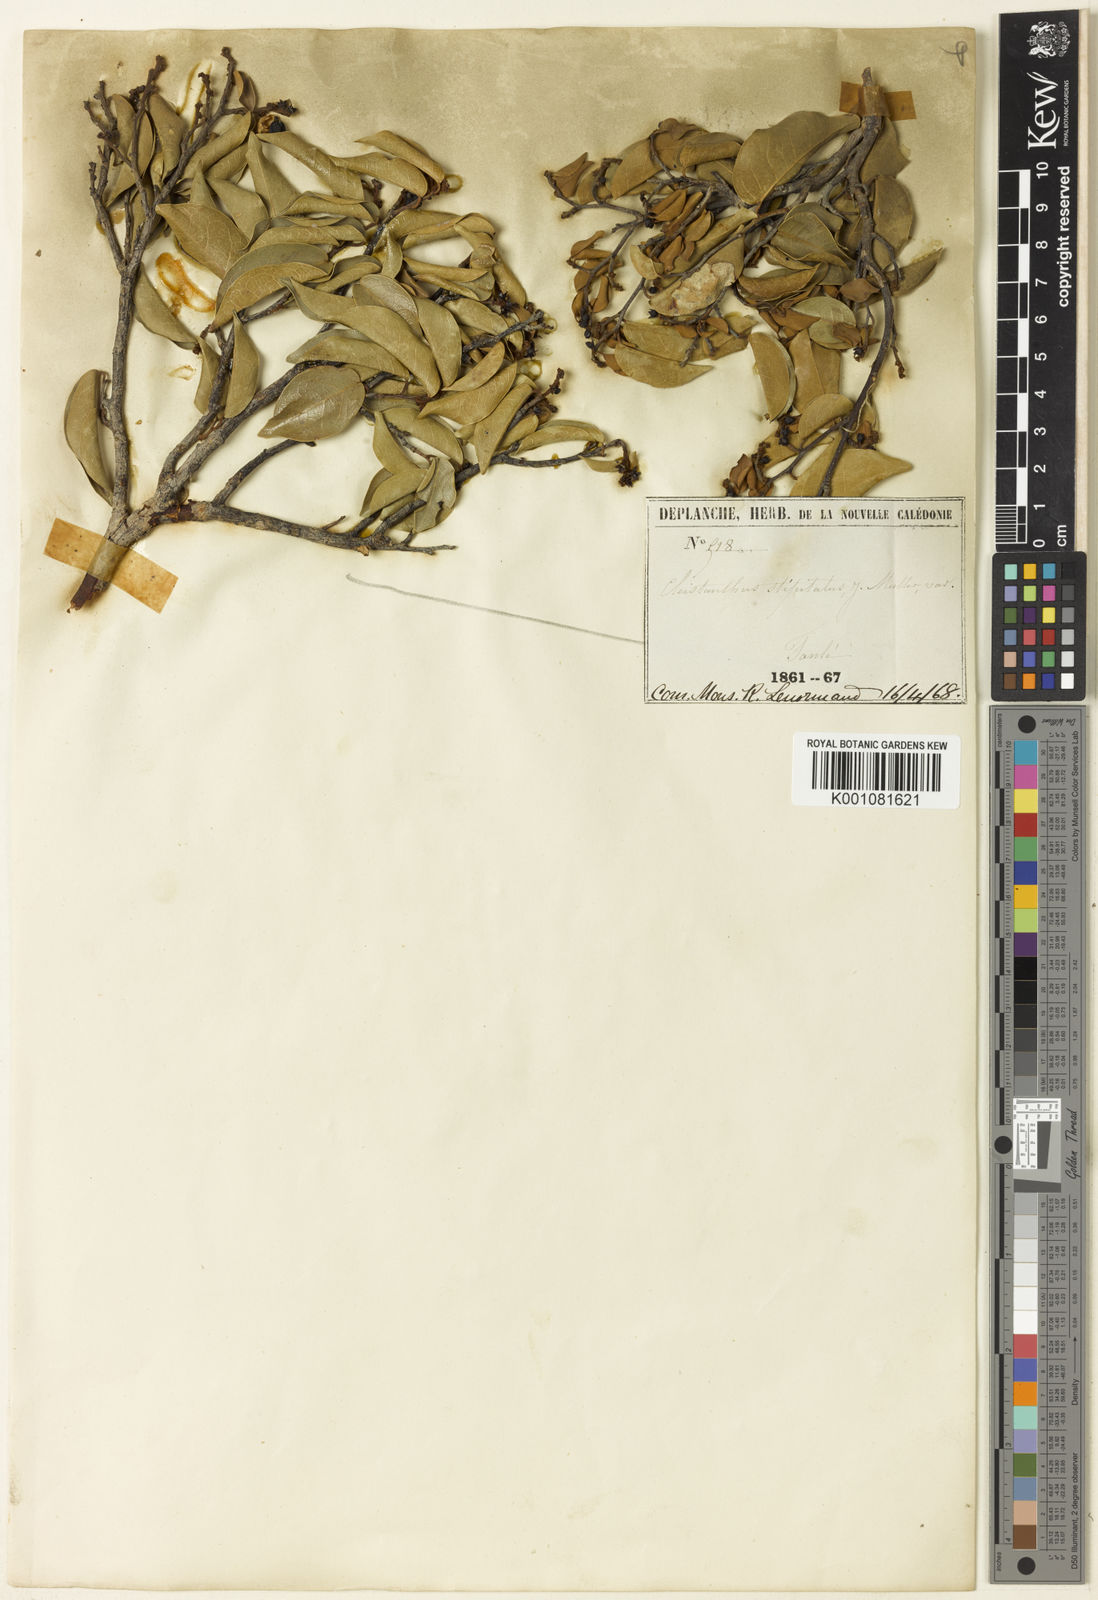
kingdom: Plantae
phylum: Tracheophyta
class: Magnoliopsida
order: Malpighiales
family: Phyllanthaceae
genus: Cleistanthus
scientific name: Cleistanthus
